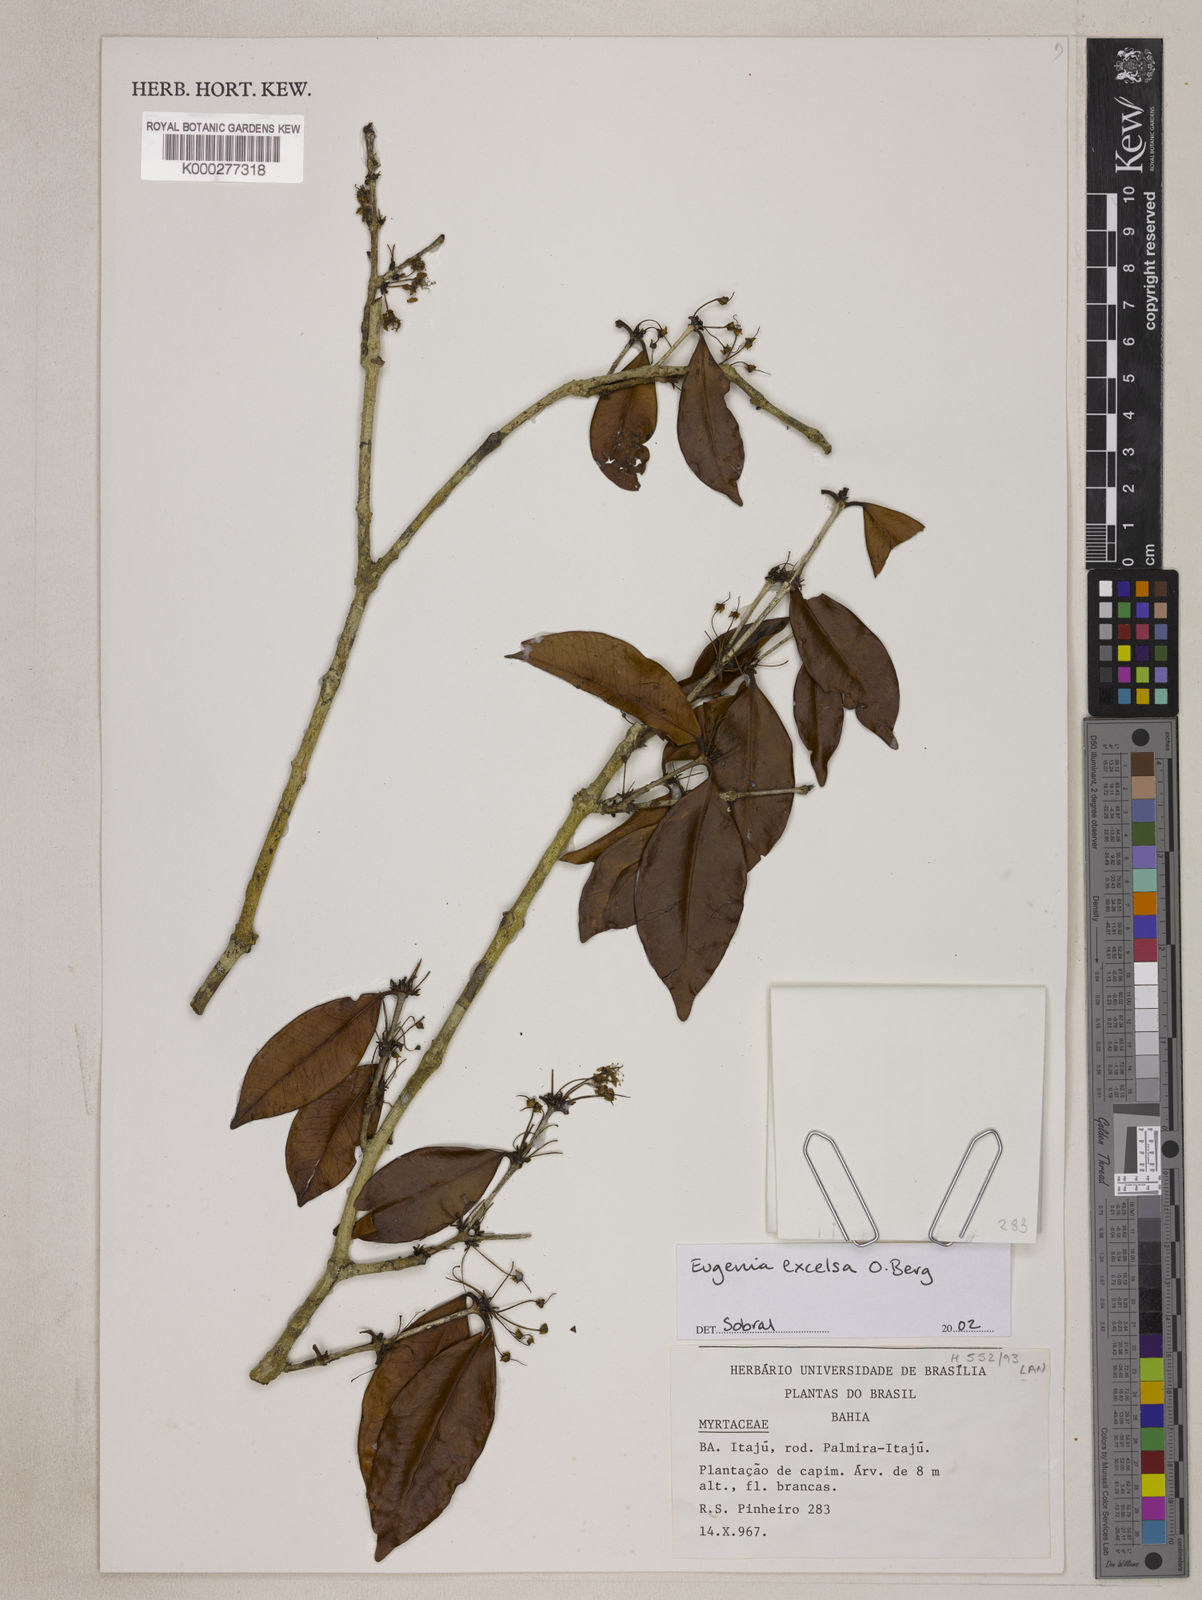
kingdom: Plantae
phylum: Tracheophyta
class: Magnoliopsida
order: Myrtales
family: Myrtaceae
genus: Eugenia
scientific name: Eugenia excelsa
